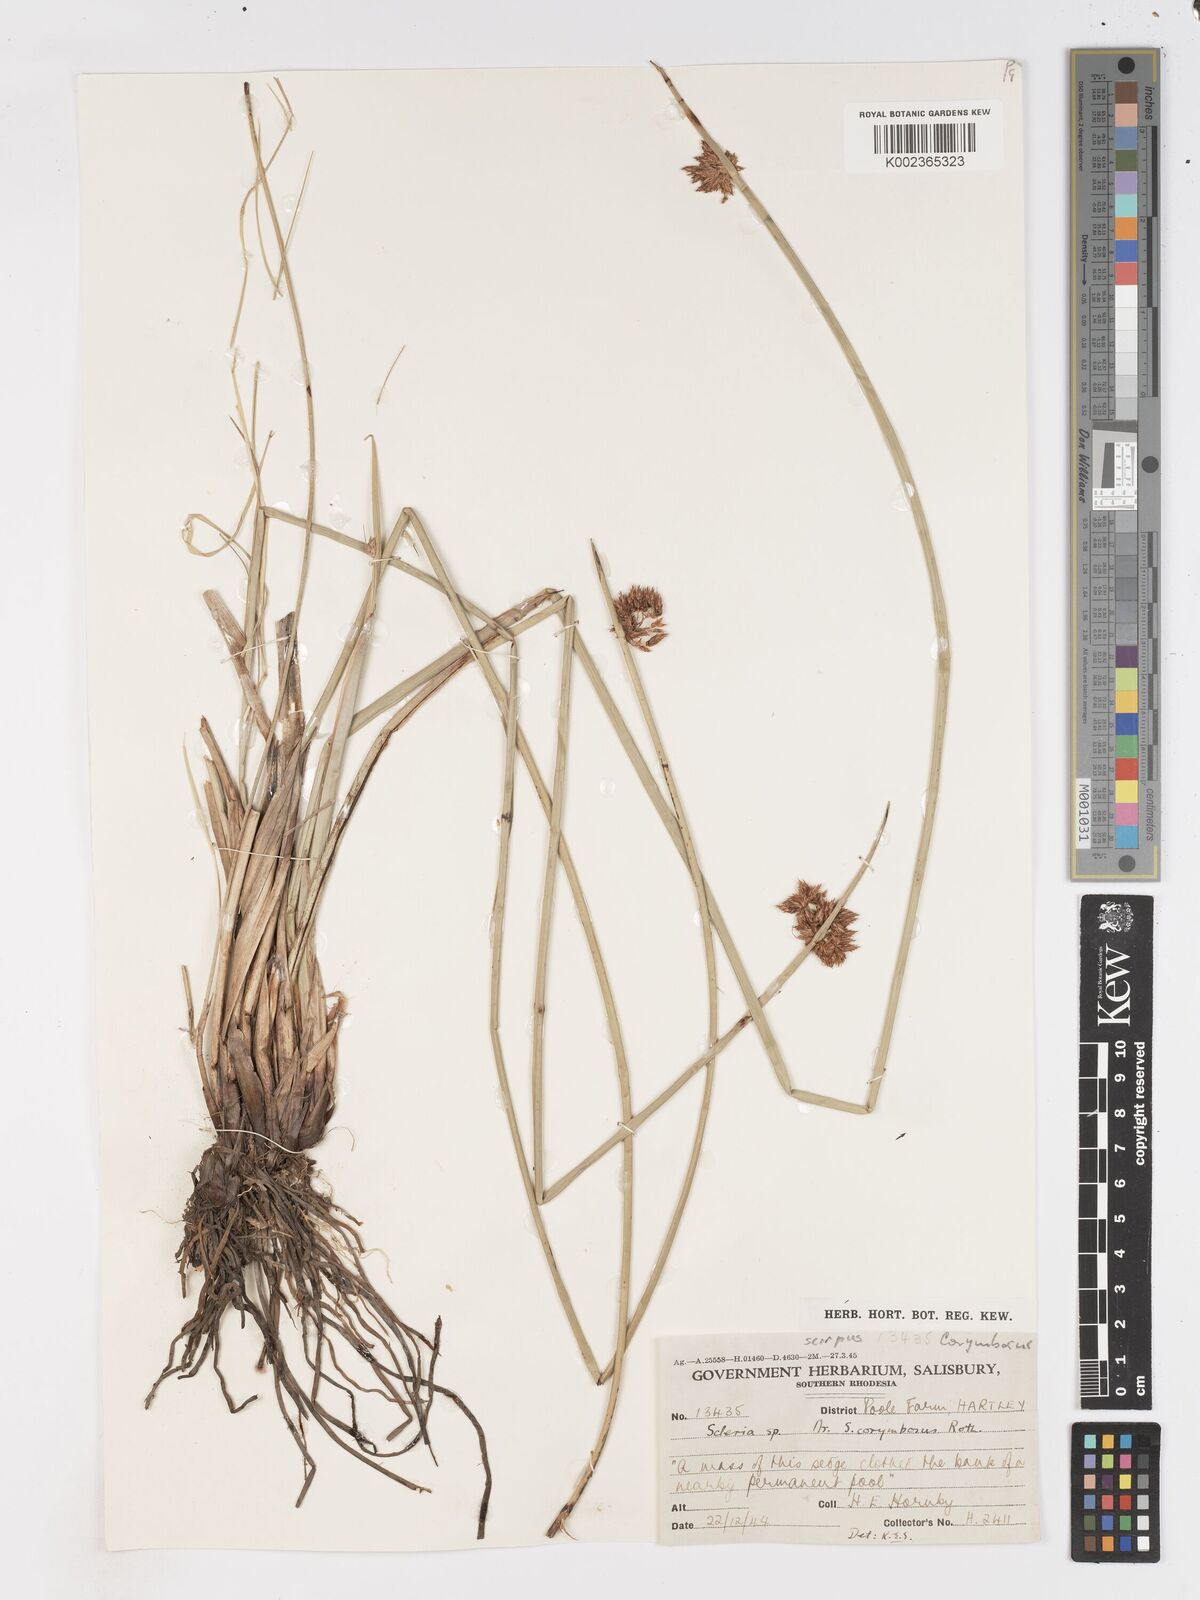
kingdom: Plantae
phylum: Tracheophyta
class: Liliopsida
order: Poales
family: Cyperaceae
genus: Schoenoplectus
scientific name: Schoenoplectus
